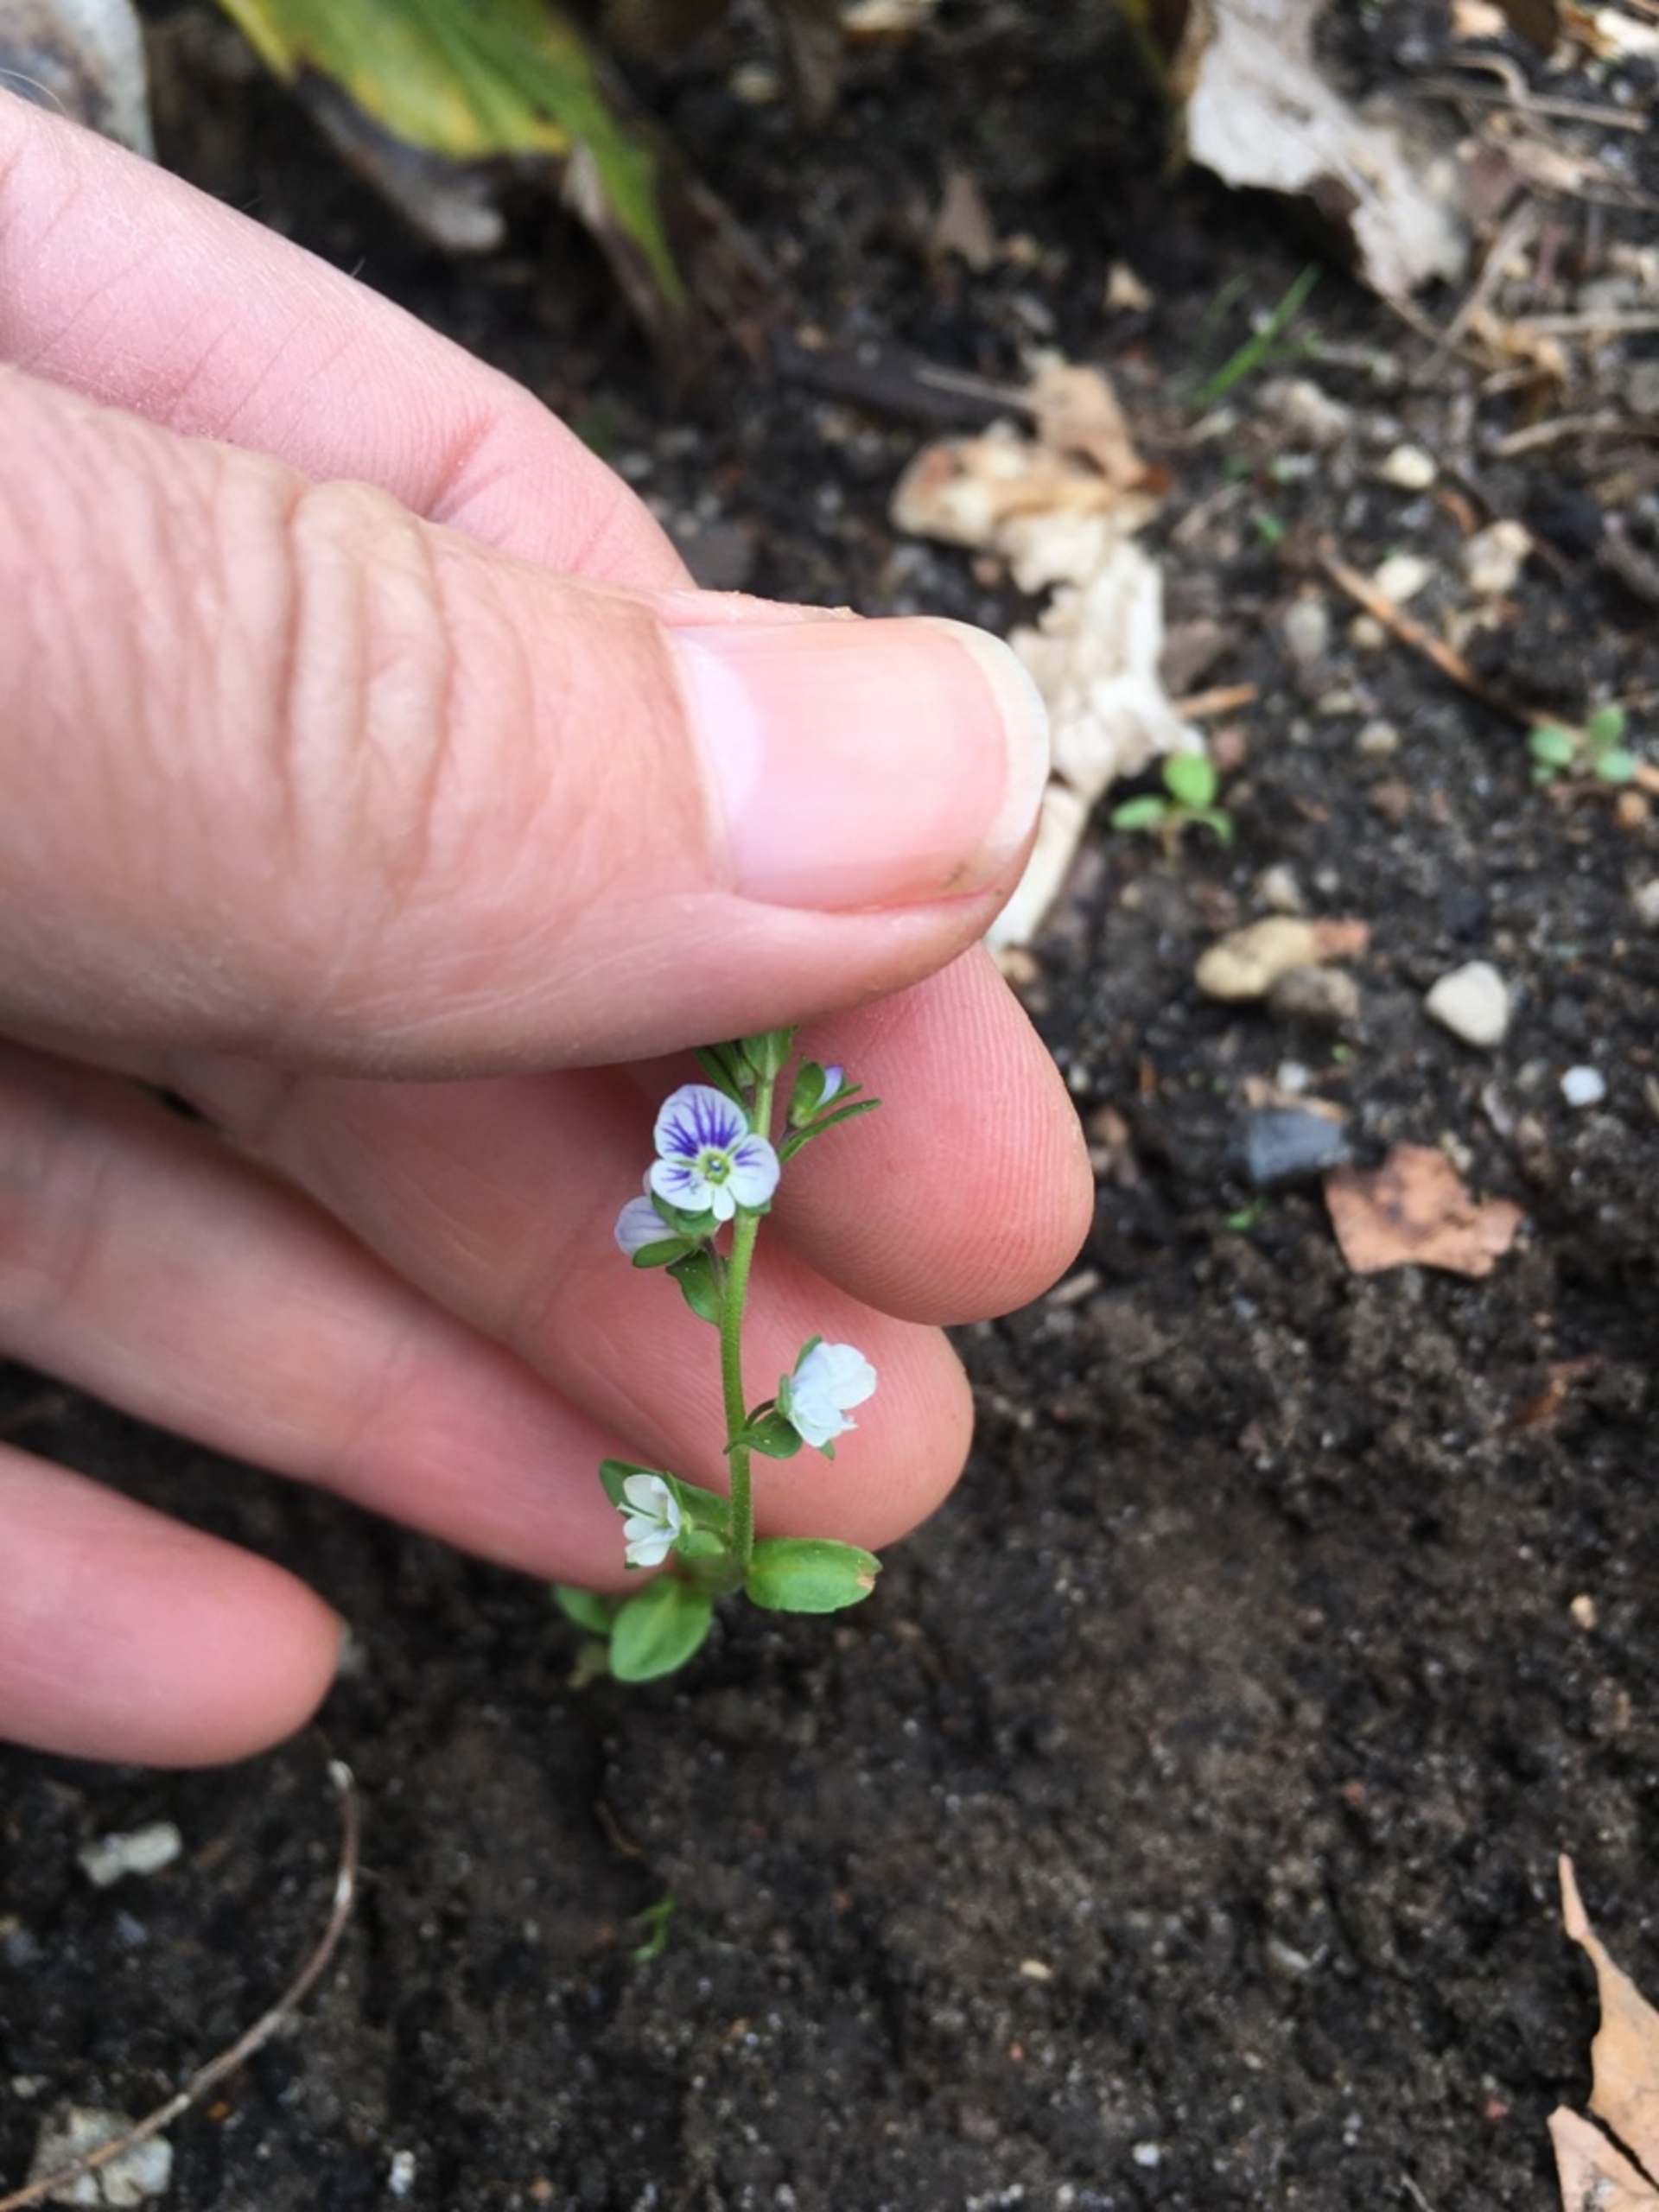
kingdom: Plantae
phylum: Tracheophyta
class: Magnoliopsida
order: Lamiales
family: Plantaginaceae
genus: Veronica
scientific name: Veronica serpyllifolia
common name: Glat ærenpris
